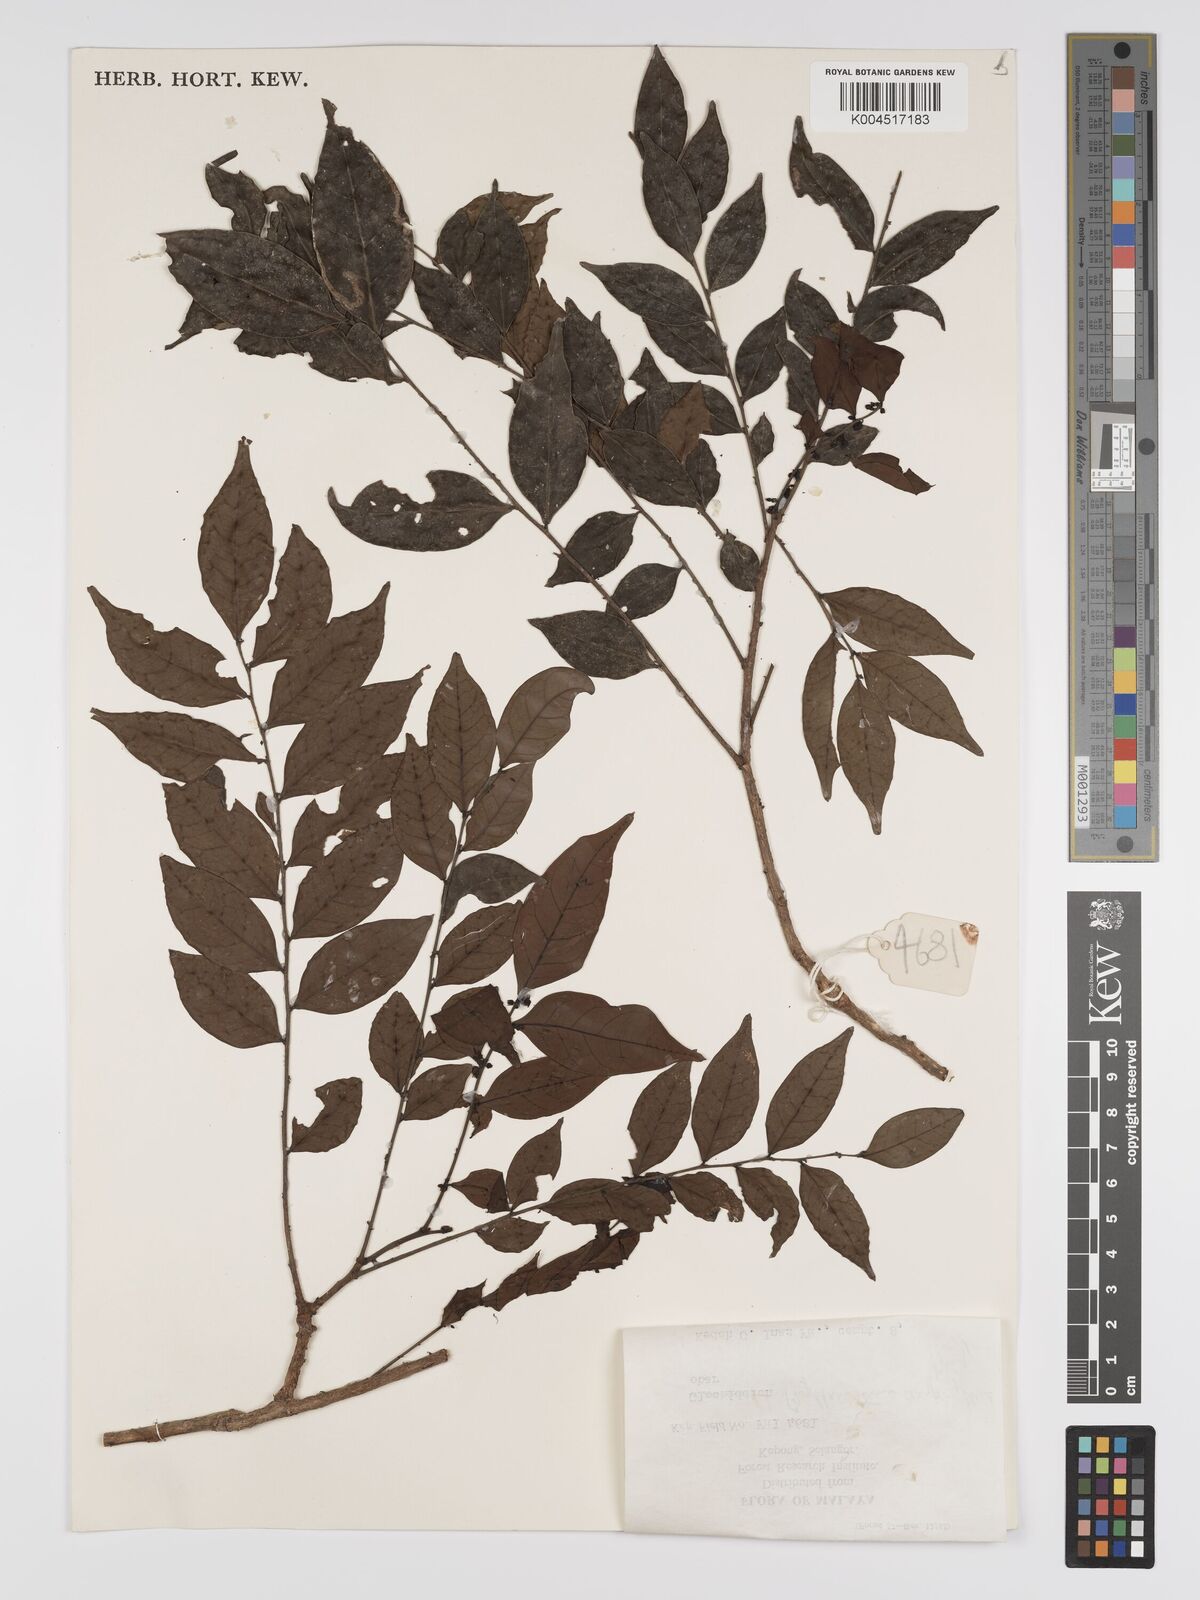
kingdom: Plantae
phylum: Tracheophyta
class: Magnoliopsida
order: Malpighiales
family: Phyllanthaceae
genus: Phyllanthus
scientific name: Phyllanthus
